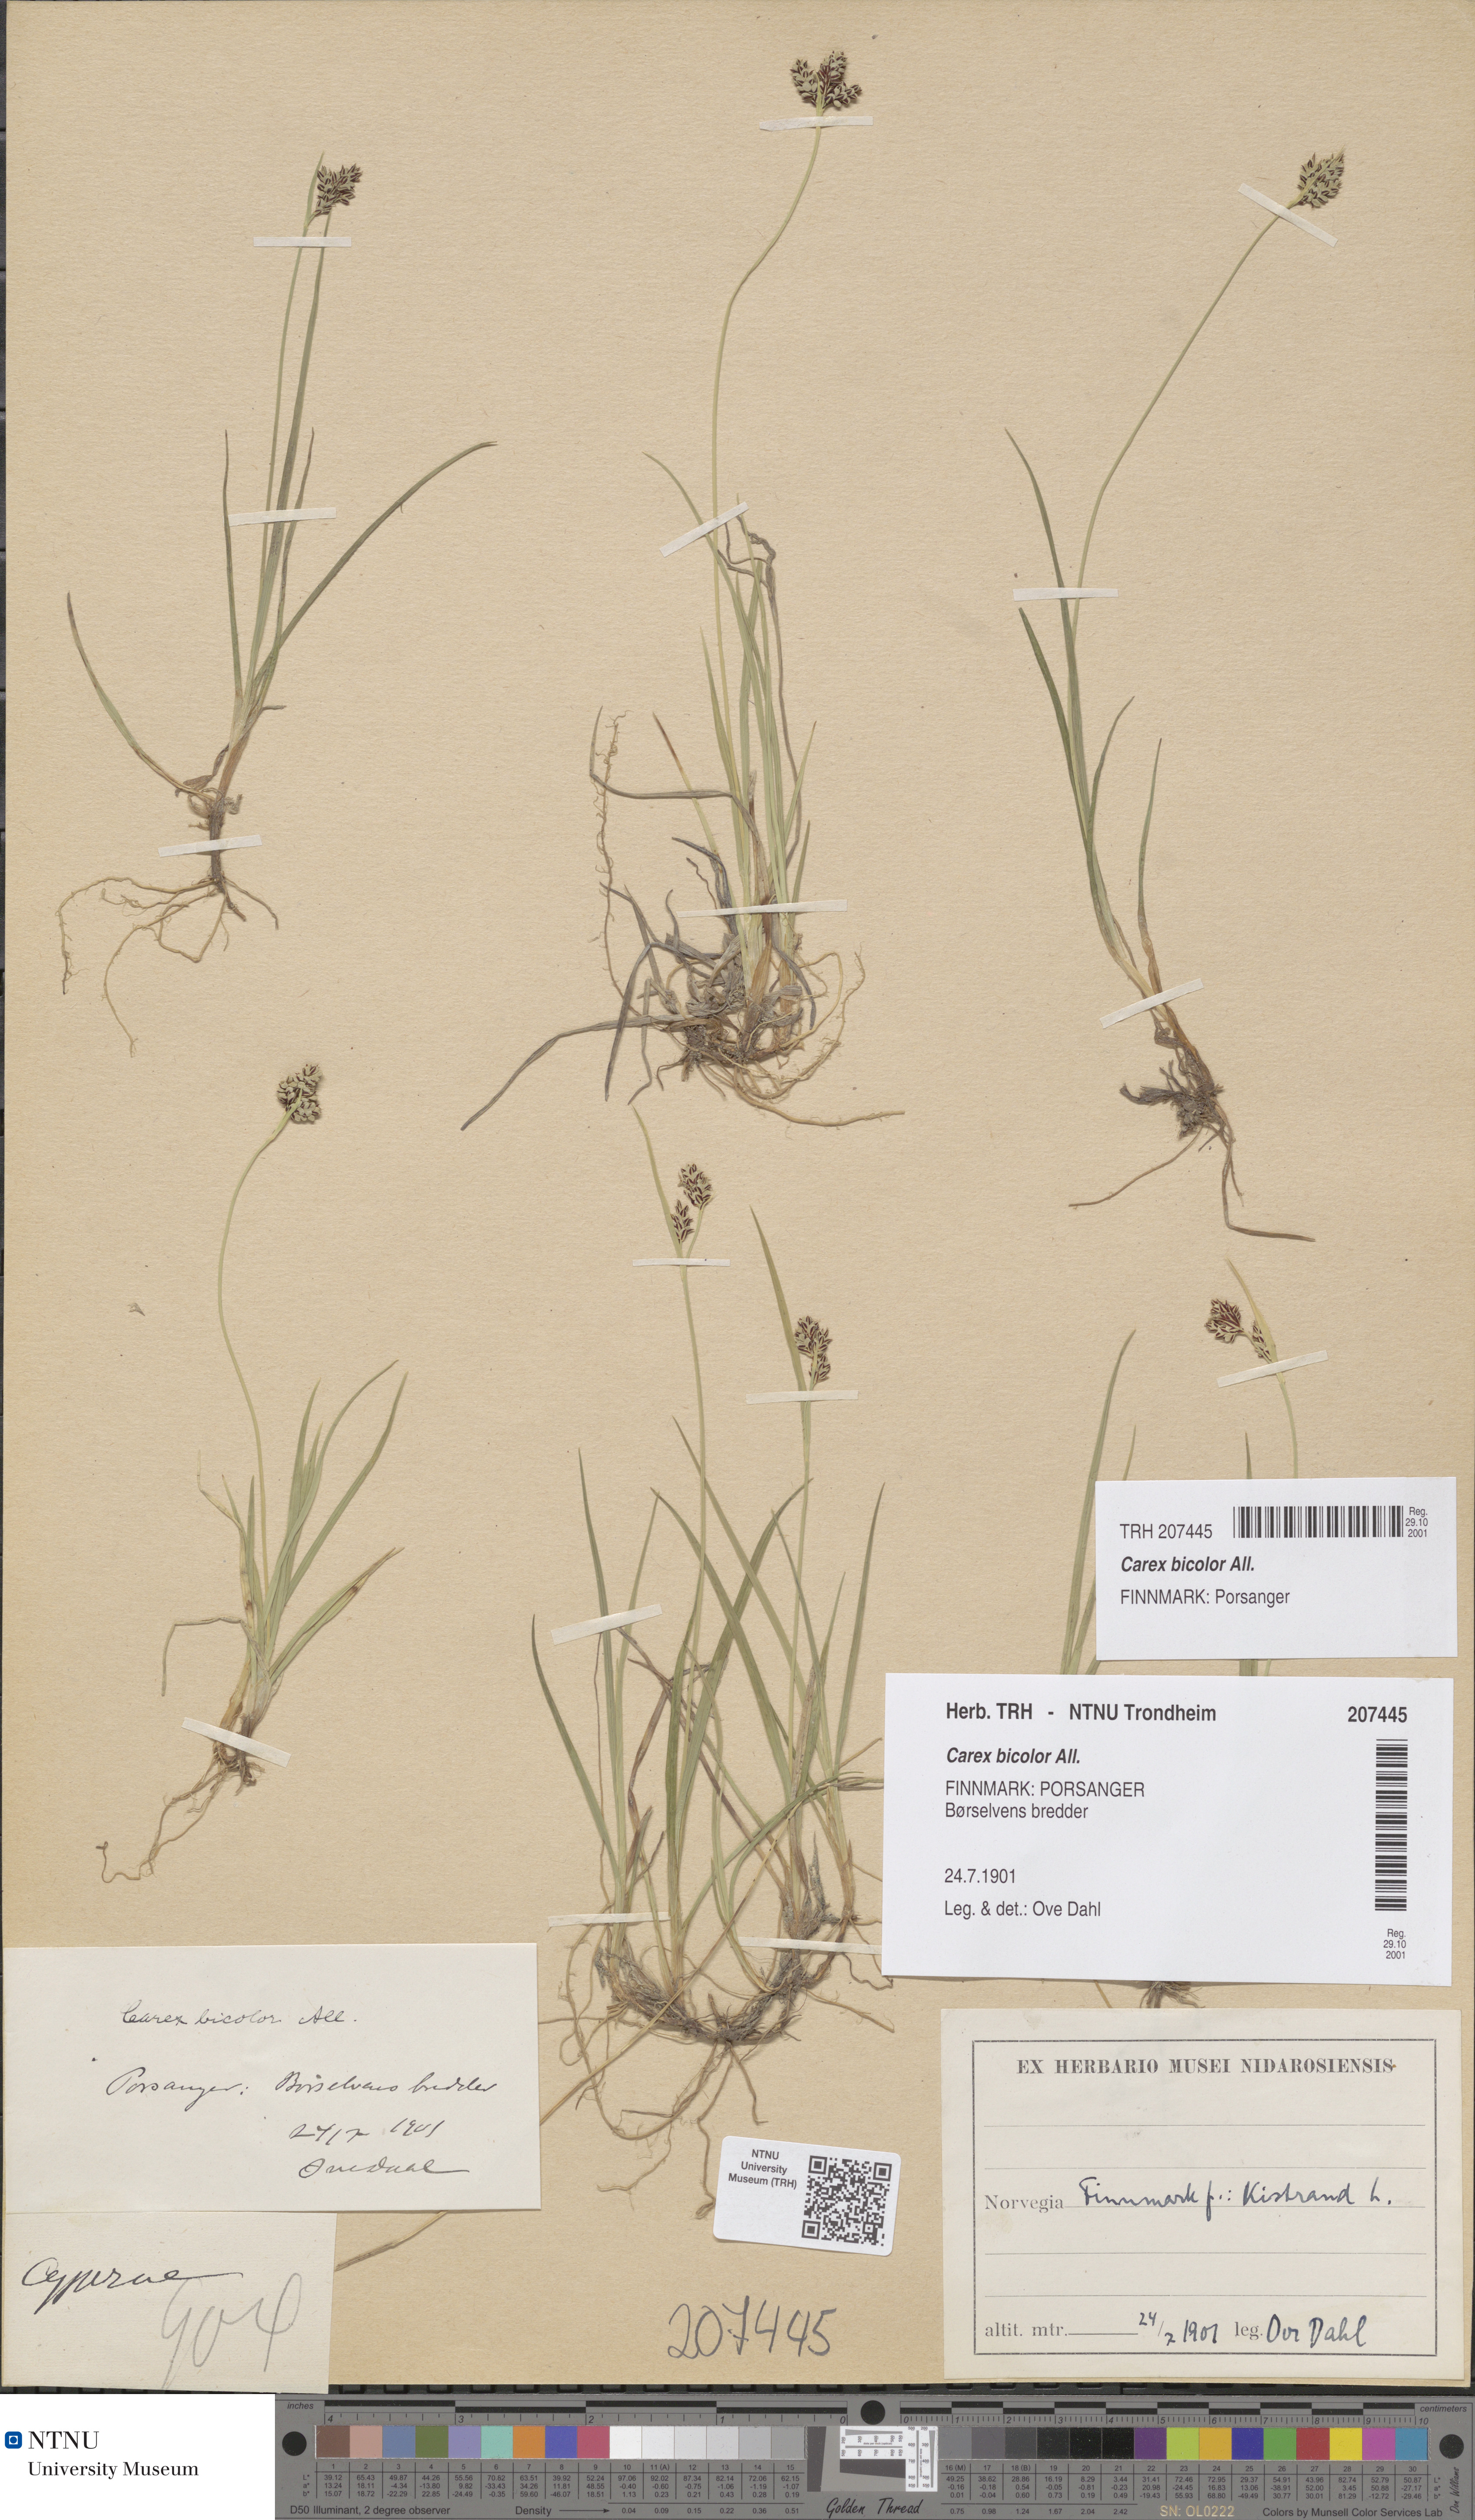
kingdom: Plantae
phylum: Tracheophyta
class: Liliopsida
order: Poales
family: Cyperaceae
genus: Carex
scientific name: Carex bicolor
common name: Bicoloured sedge
